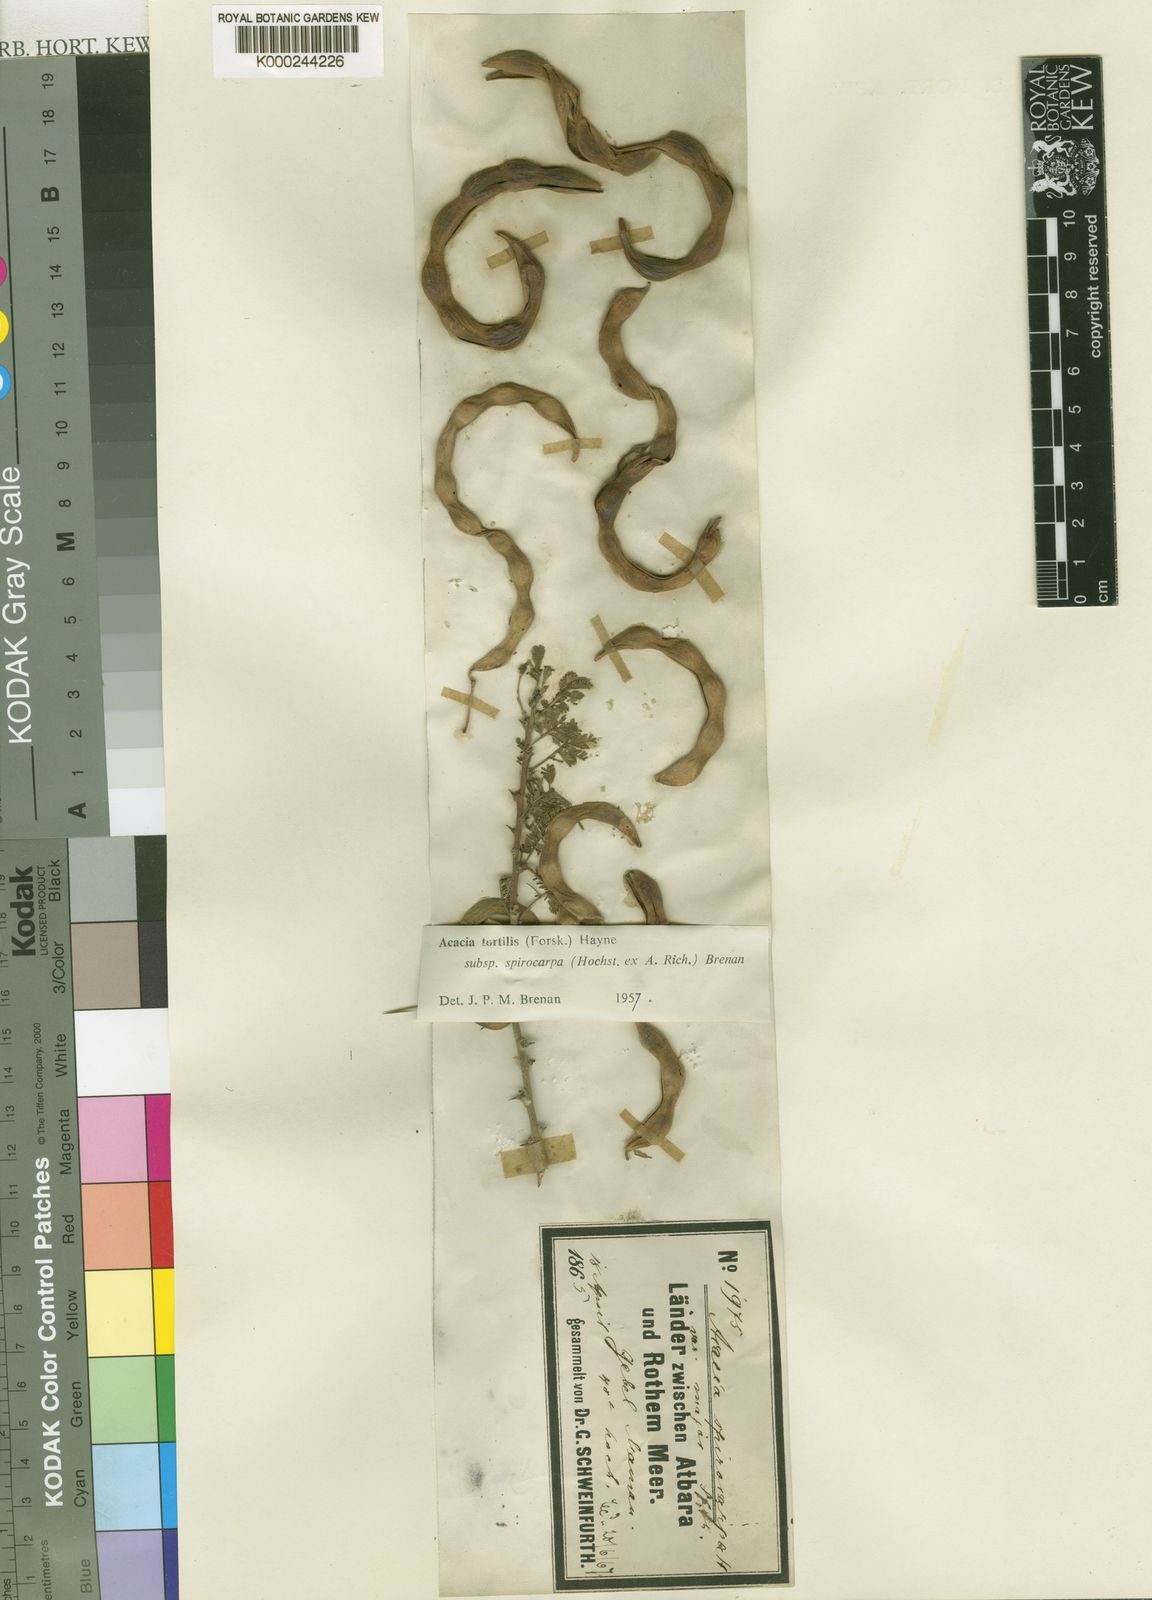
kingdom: Plantae
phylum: Tracheophyta
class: Magnoliopsida
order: Fabales
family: Fabaceae
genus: Vachellia
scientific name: Vachellia tortilis
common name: Umbrella thorn acacia
